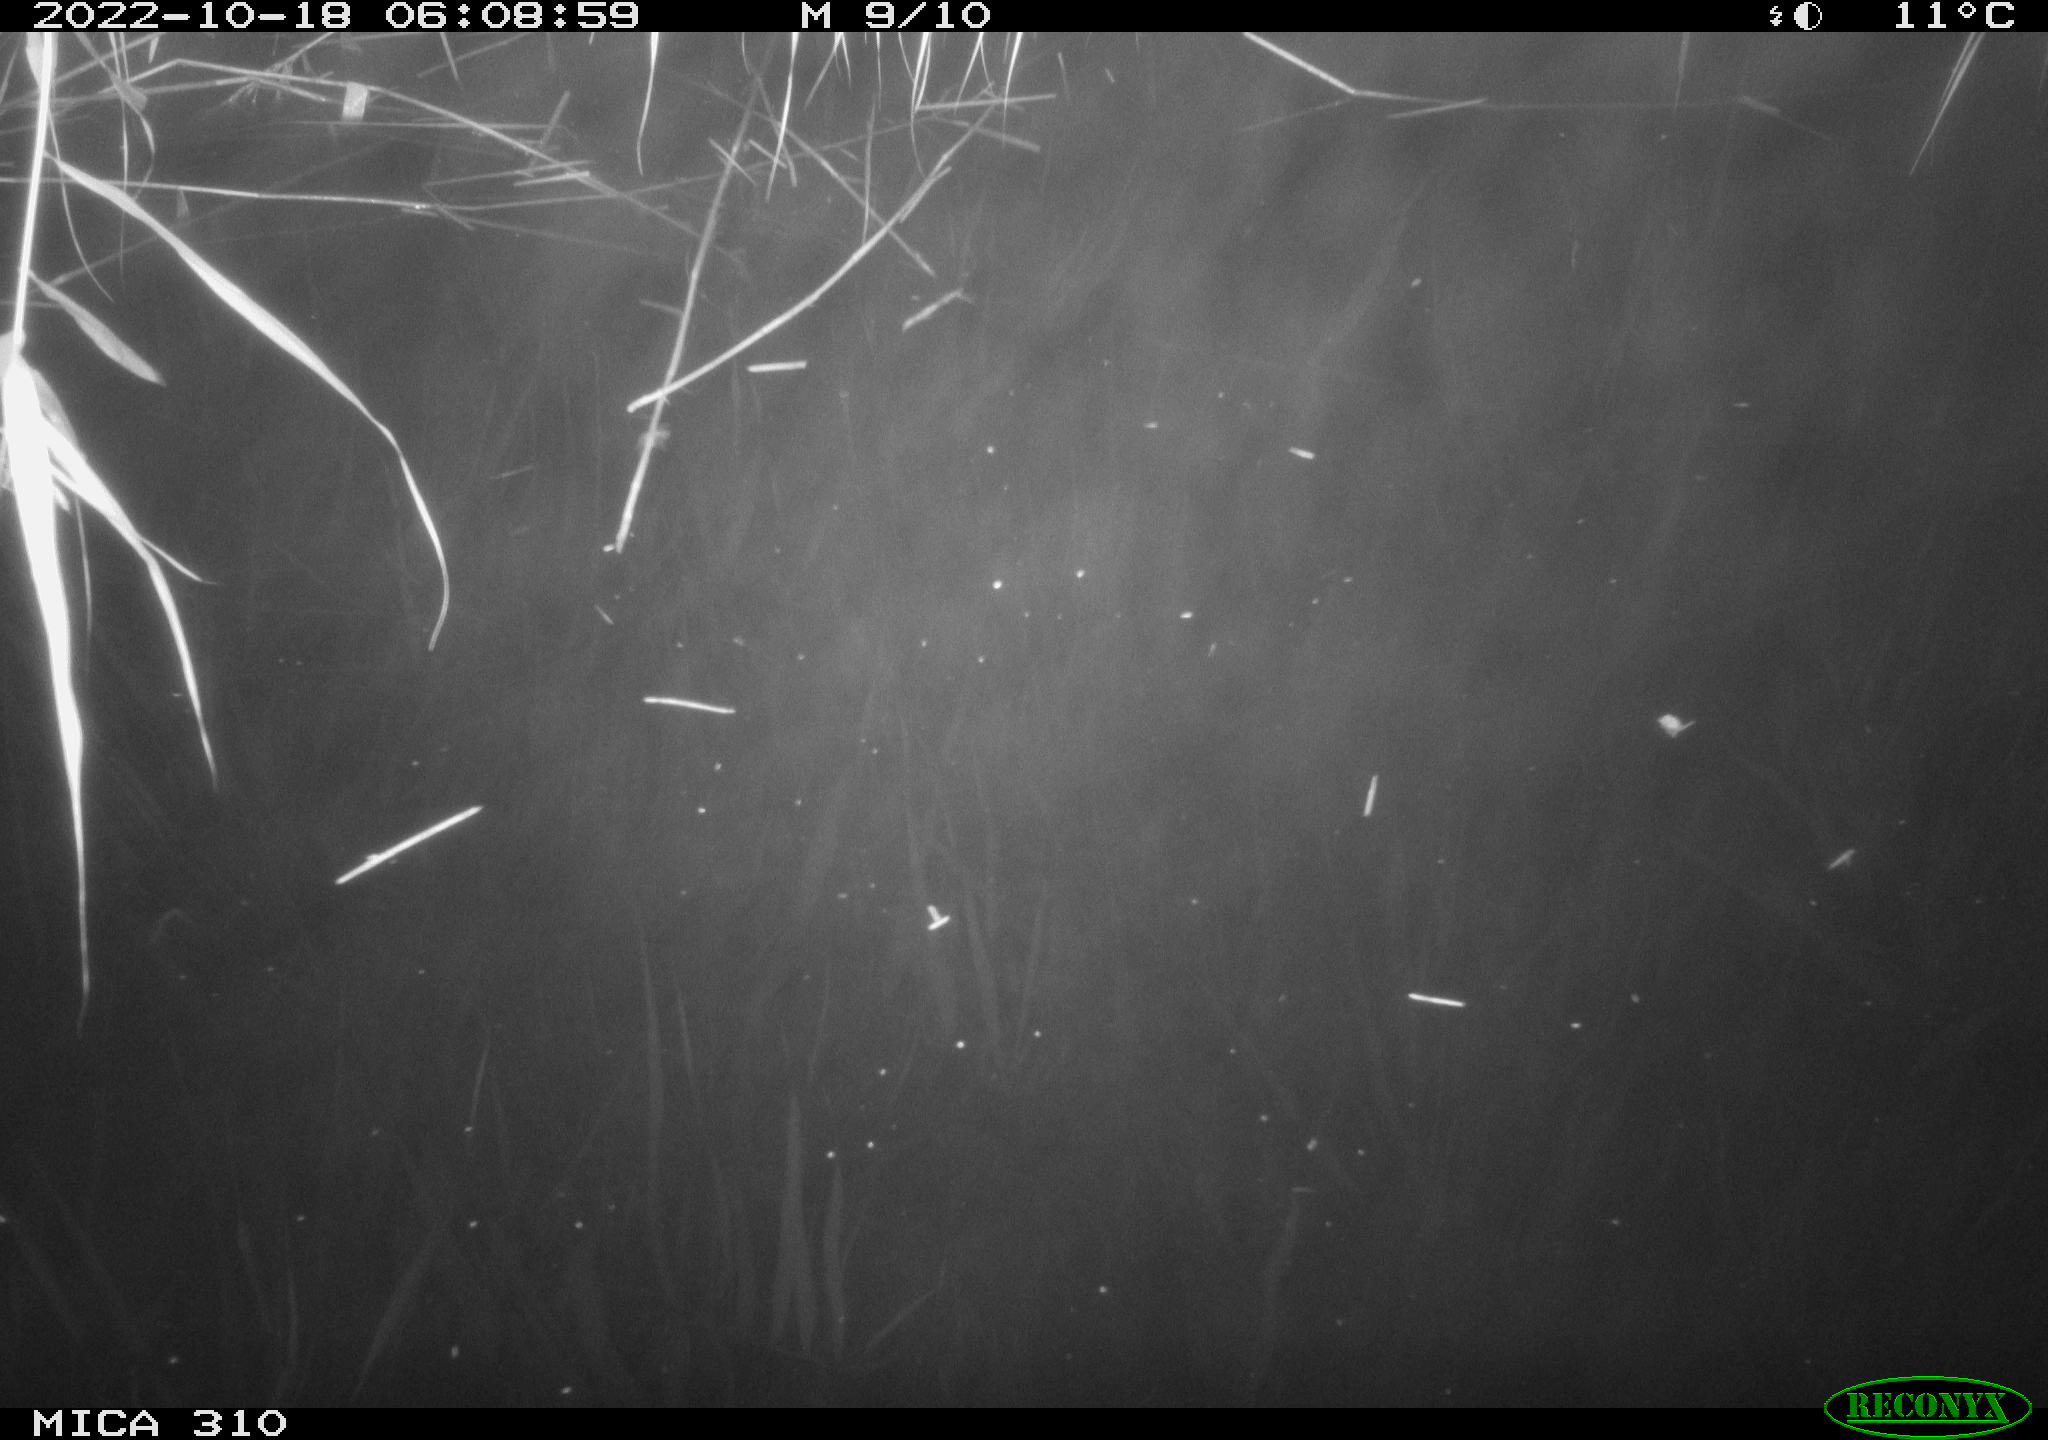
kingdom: Animalia
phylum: Chordata
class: Mammalia
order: Rodentia
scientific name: Rodentia
